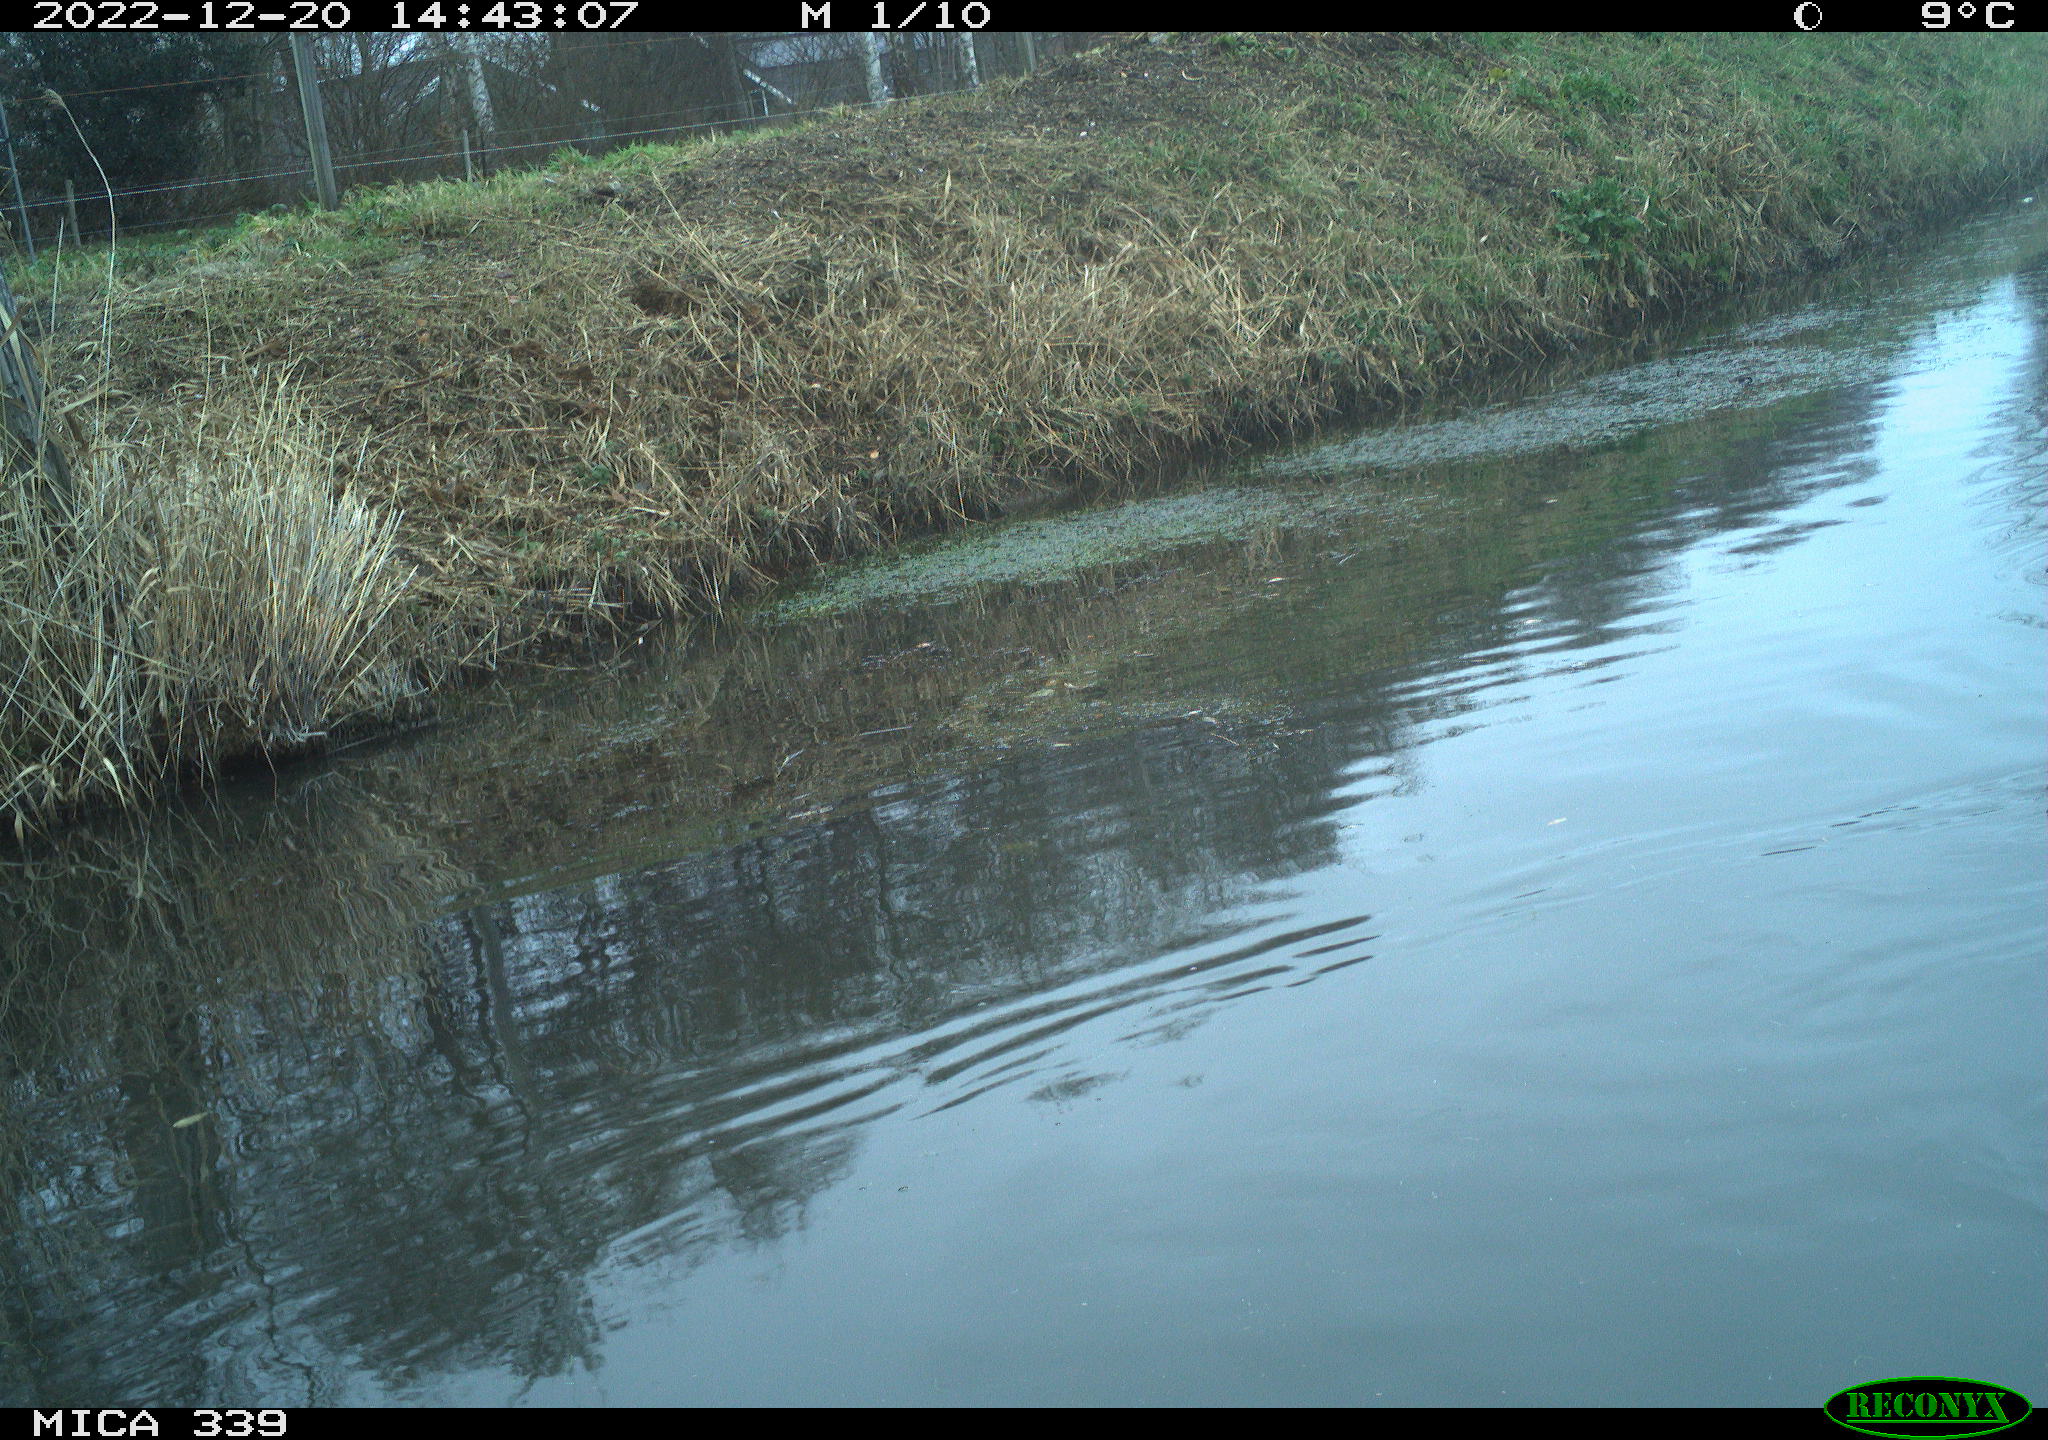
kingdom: Animalia
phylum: Chordata
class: Aves
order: Anseriformes
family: Anatidae
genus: Anas
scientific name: Anas
